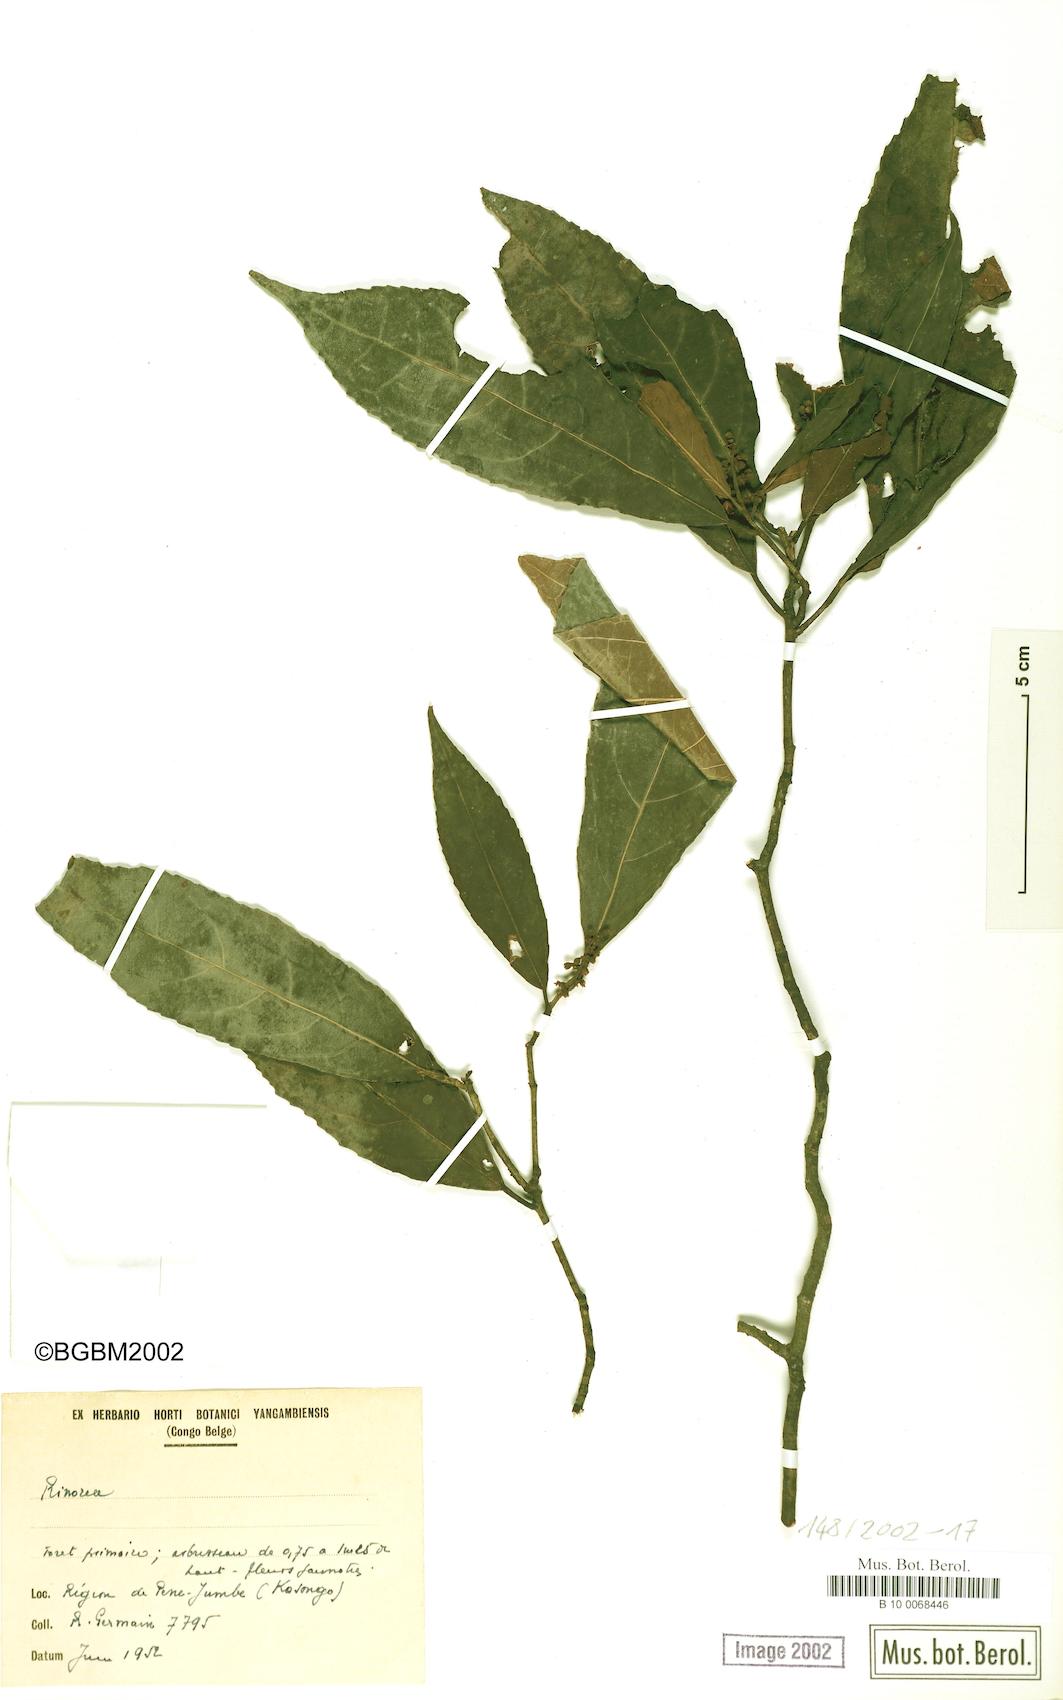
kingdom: Plantae
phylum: Tracheophyta
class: Magnoliopsida
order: Malpighiales
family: Violaceae
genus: Rinorea
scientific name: Rinorea
